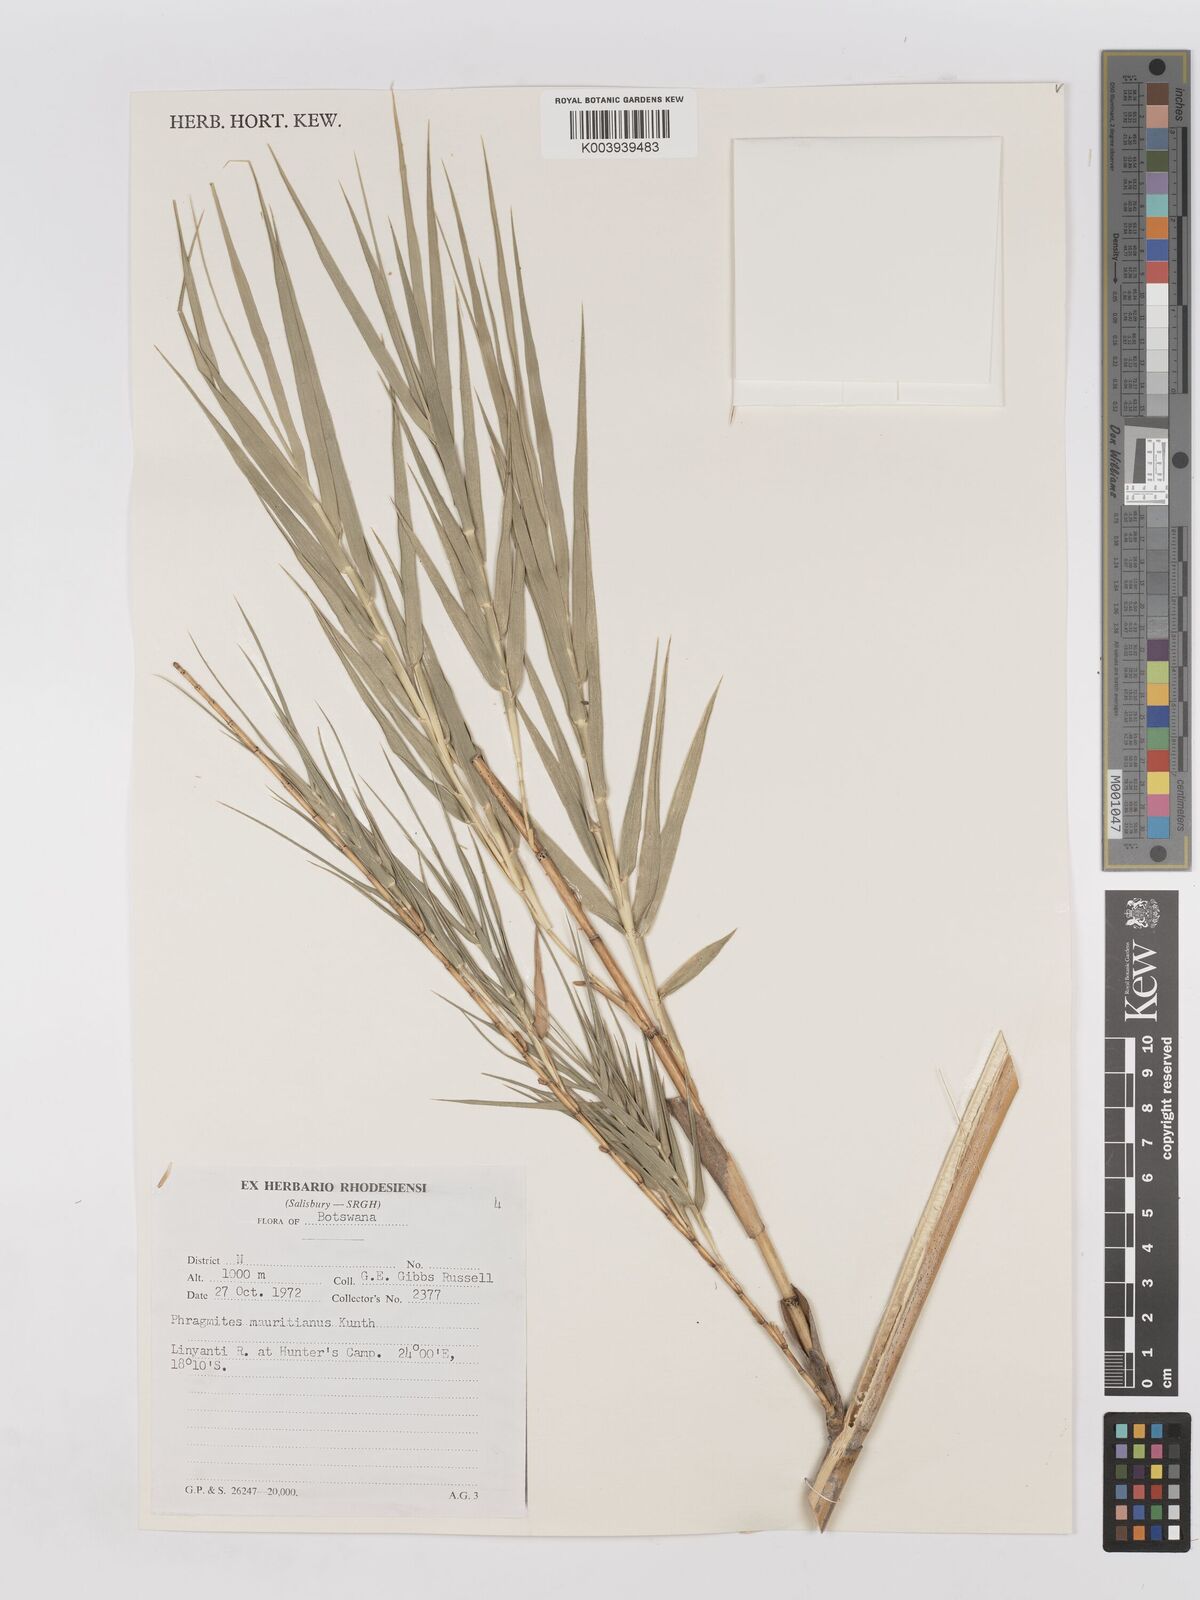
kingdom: Plantae
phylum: Tracheophyta
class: Liliopsida
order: Poales
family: Poaceae
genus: Phragmites
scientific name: Phragmites mauritianus
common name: Reed grass
